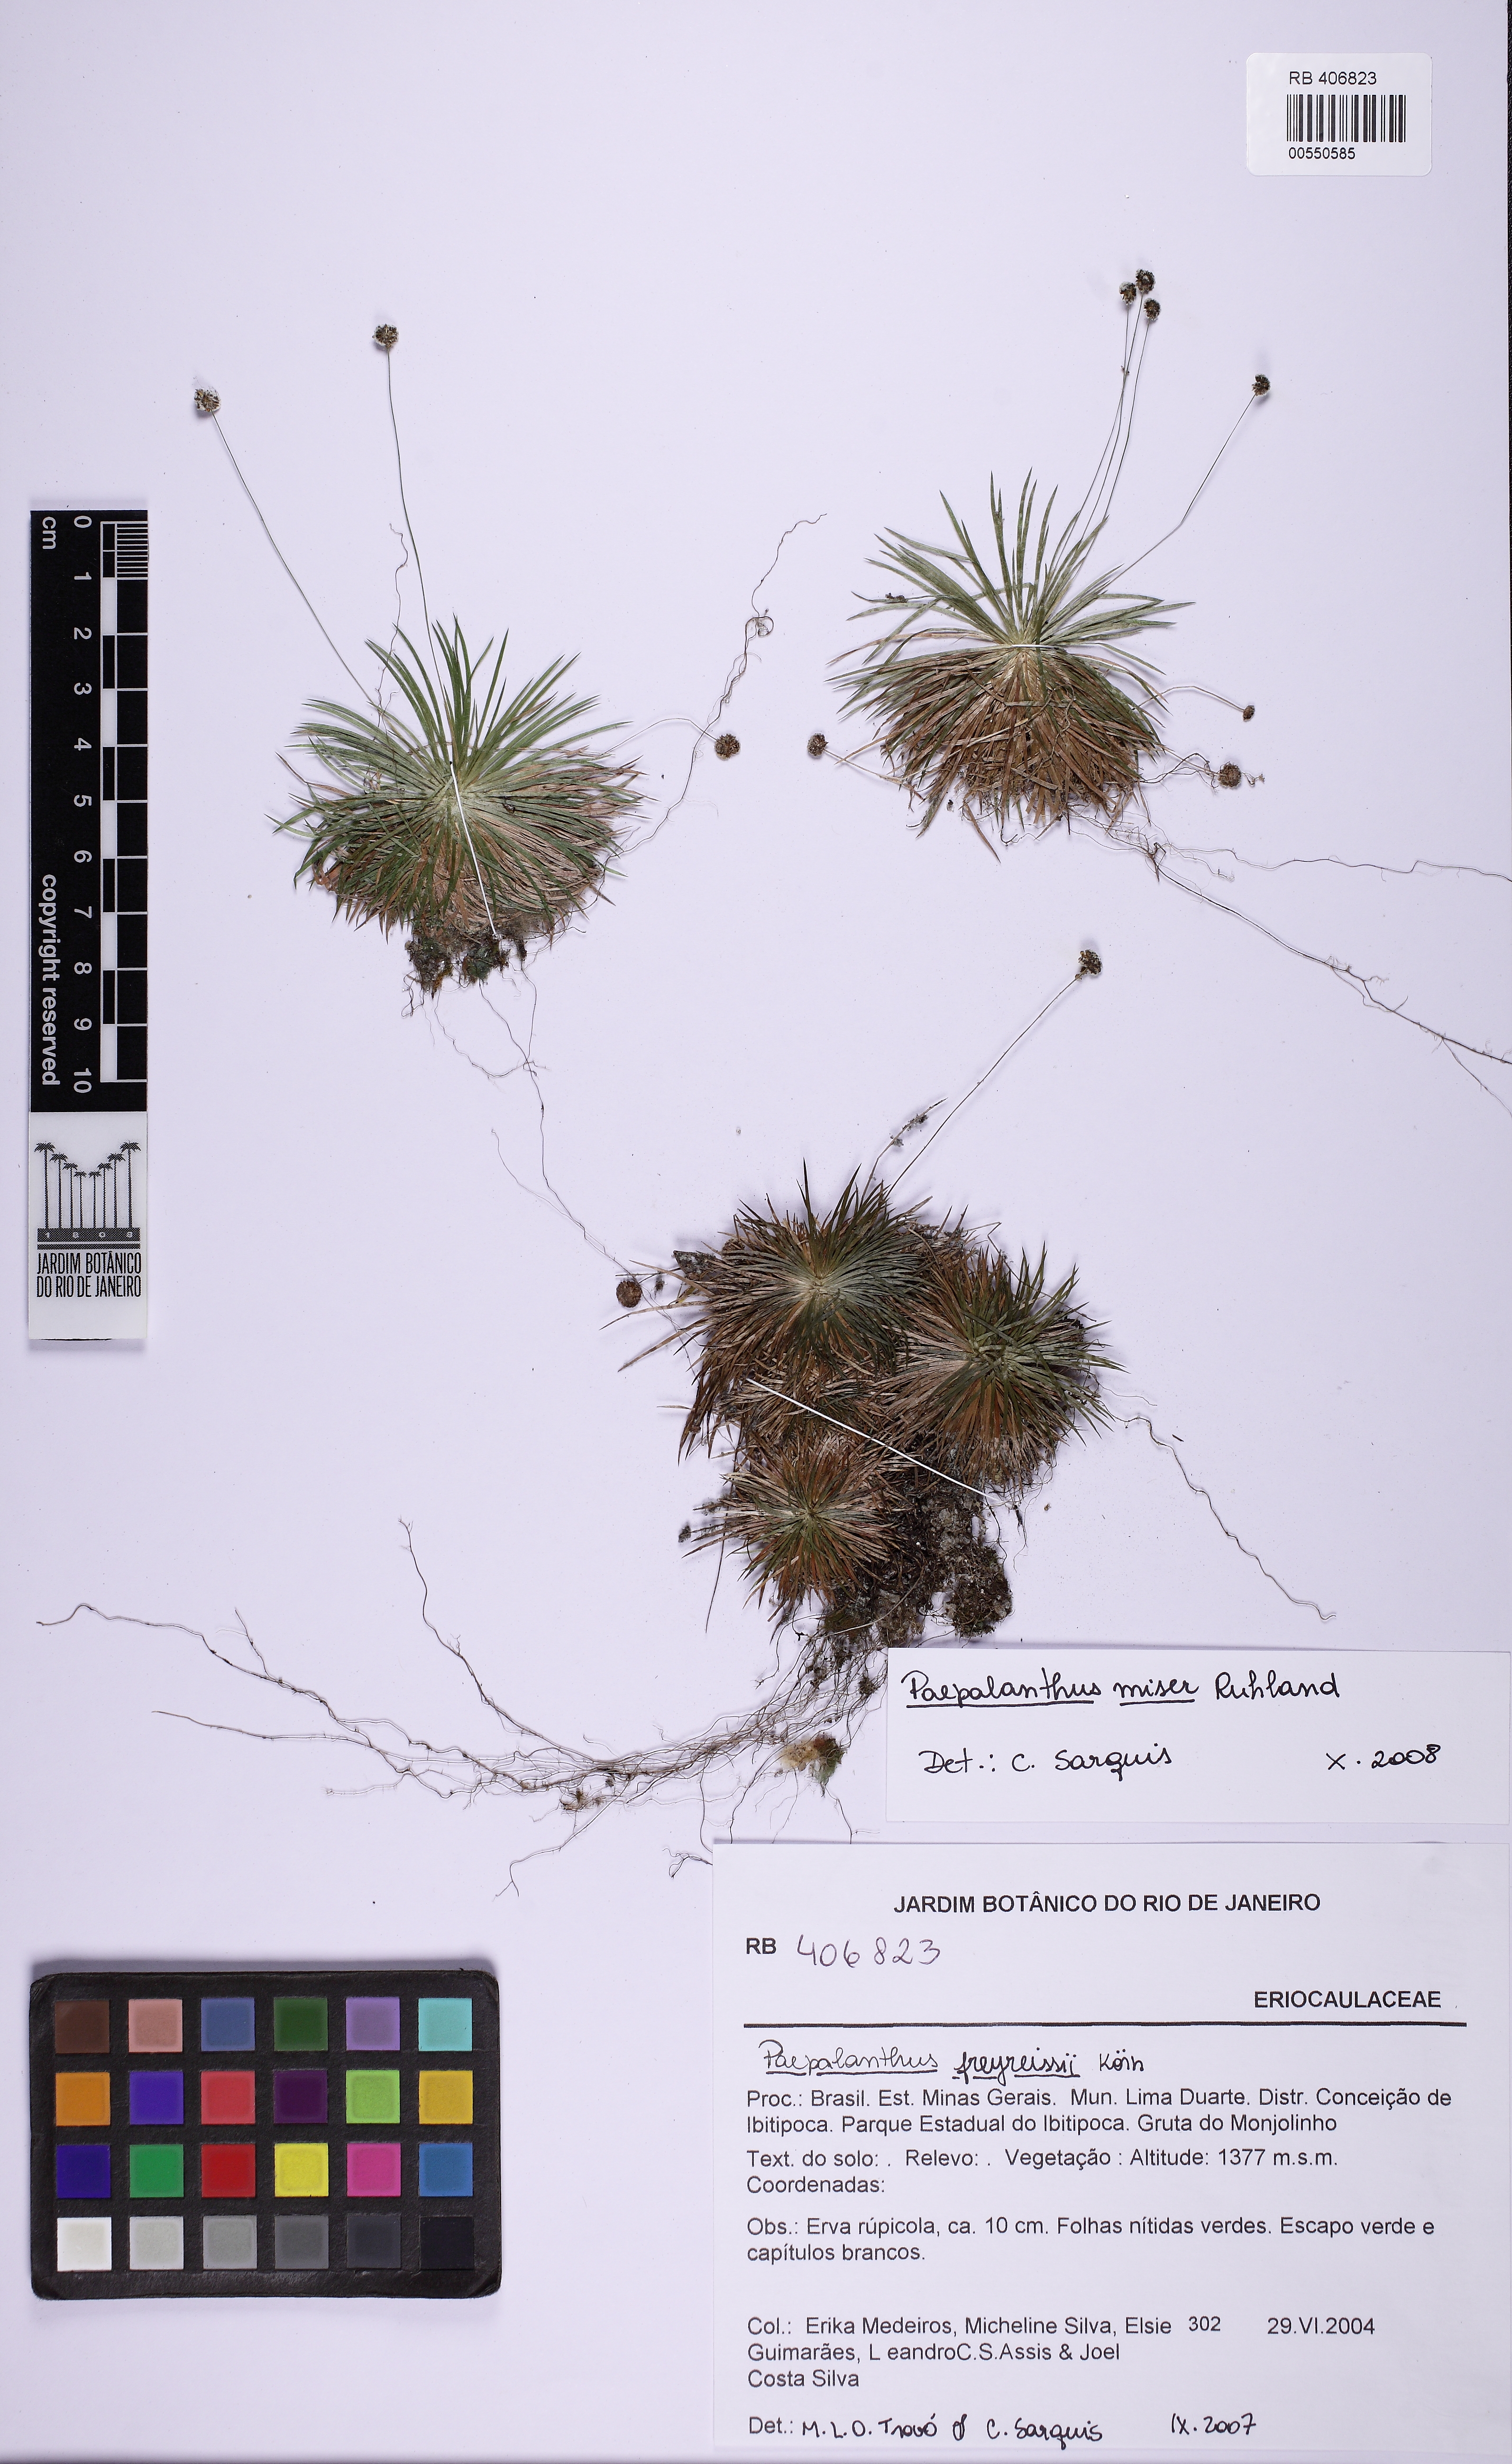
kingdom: Plantae
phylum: Tracheophyta
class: Liliopsida
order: Poales
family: Eriocaulaceae
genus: Paepalanthus
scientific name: Paepalanthus miser
